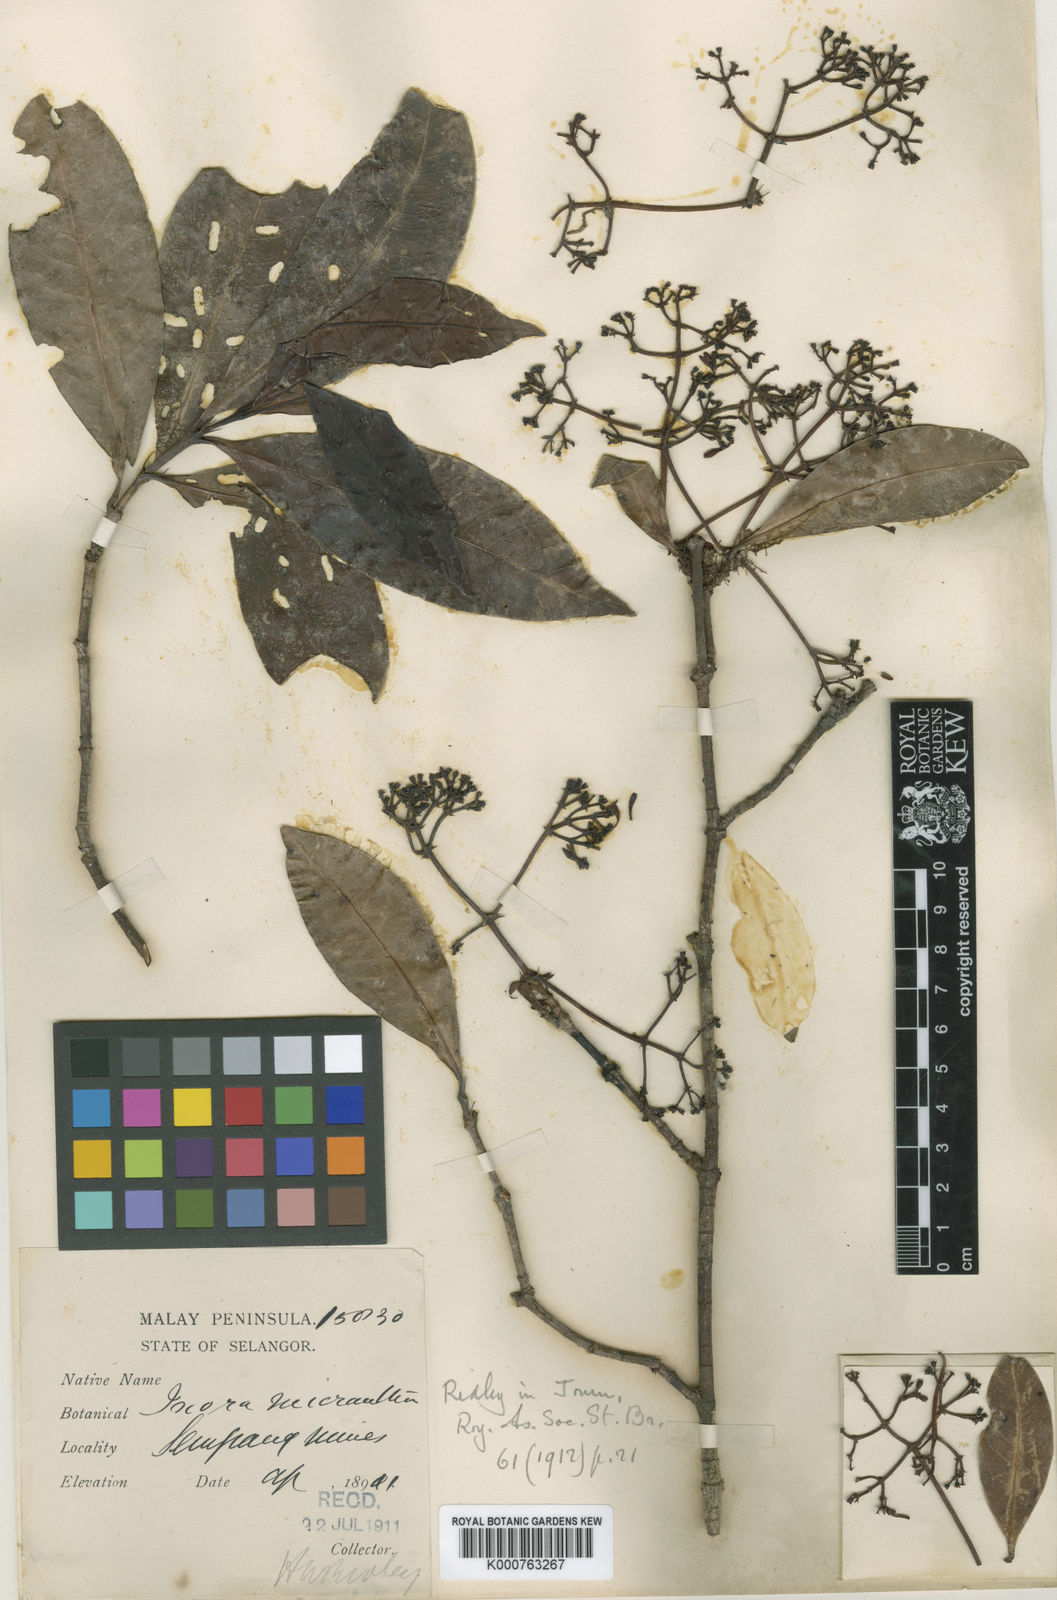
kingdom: Plantae
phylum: Tracheophyta
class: Magnoliopsida
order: Gentianales
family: Rubiaceae
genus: Ixora
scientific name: Ixora patens
